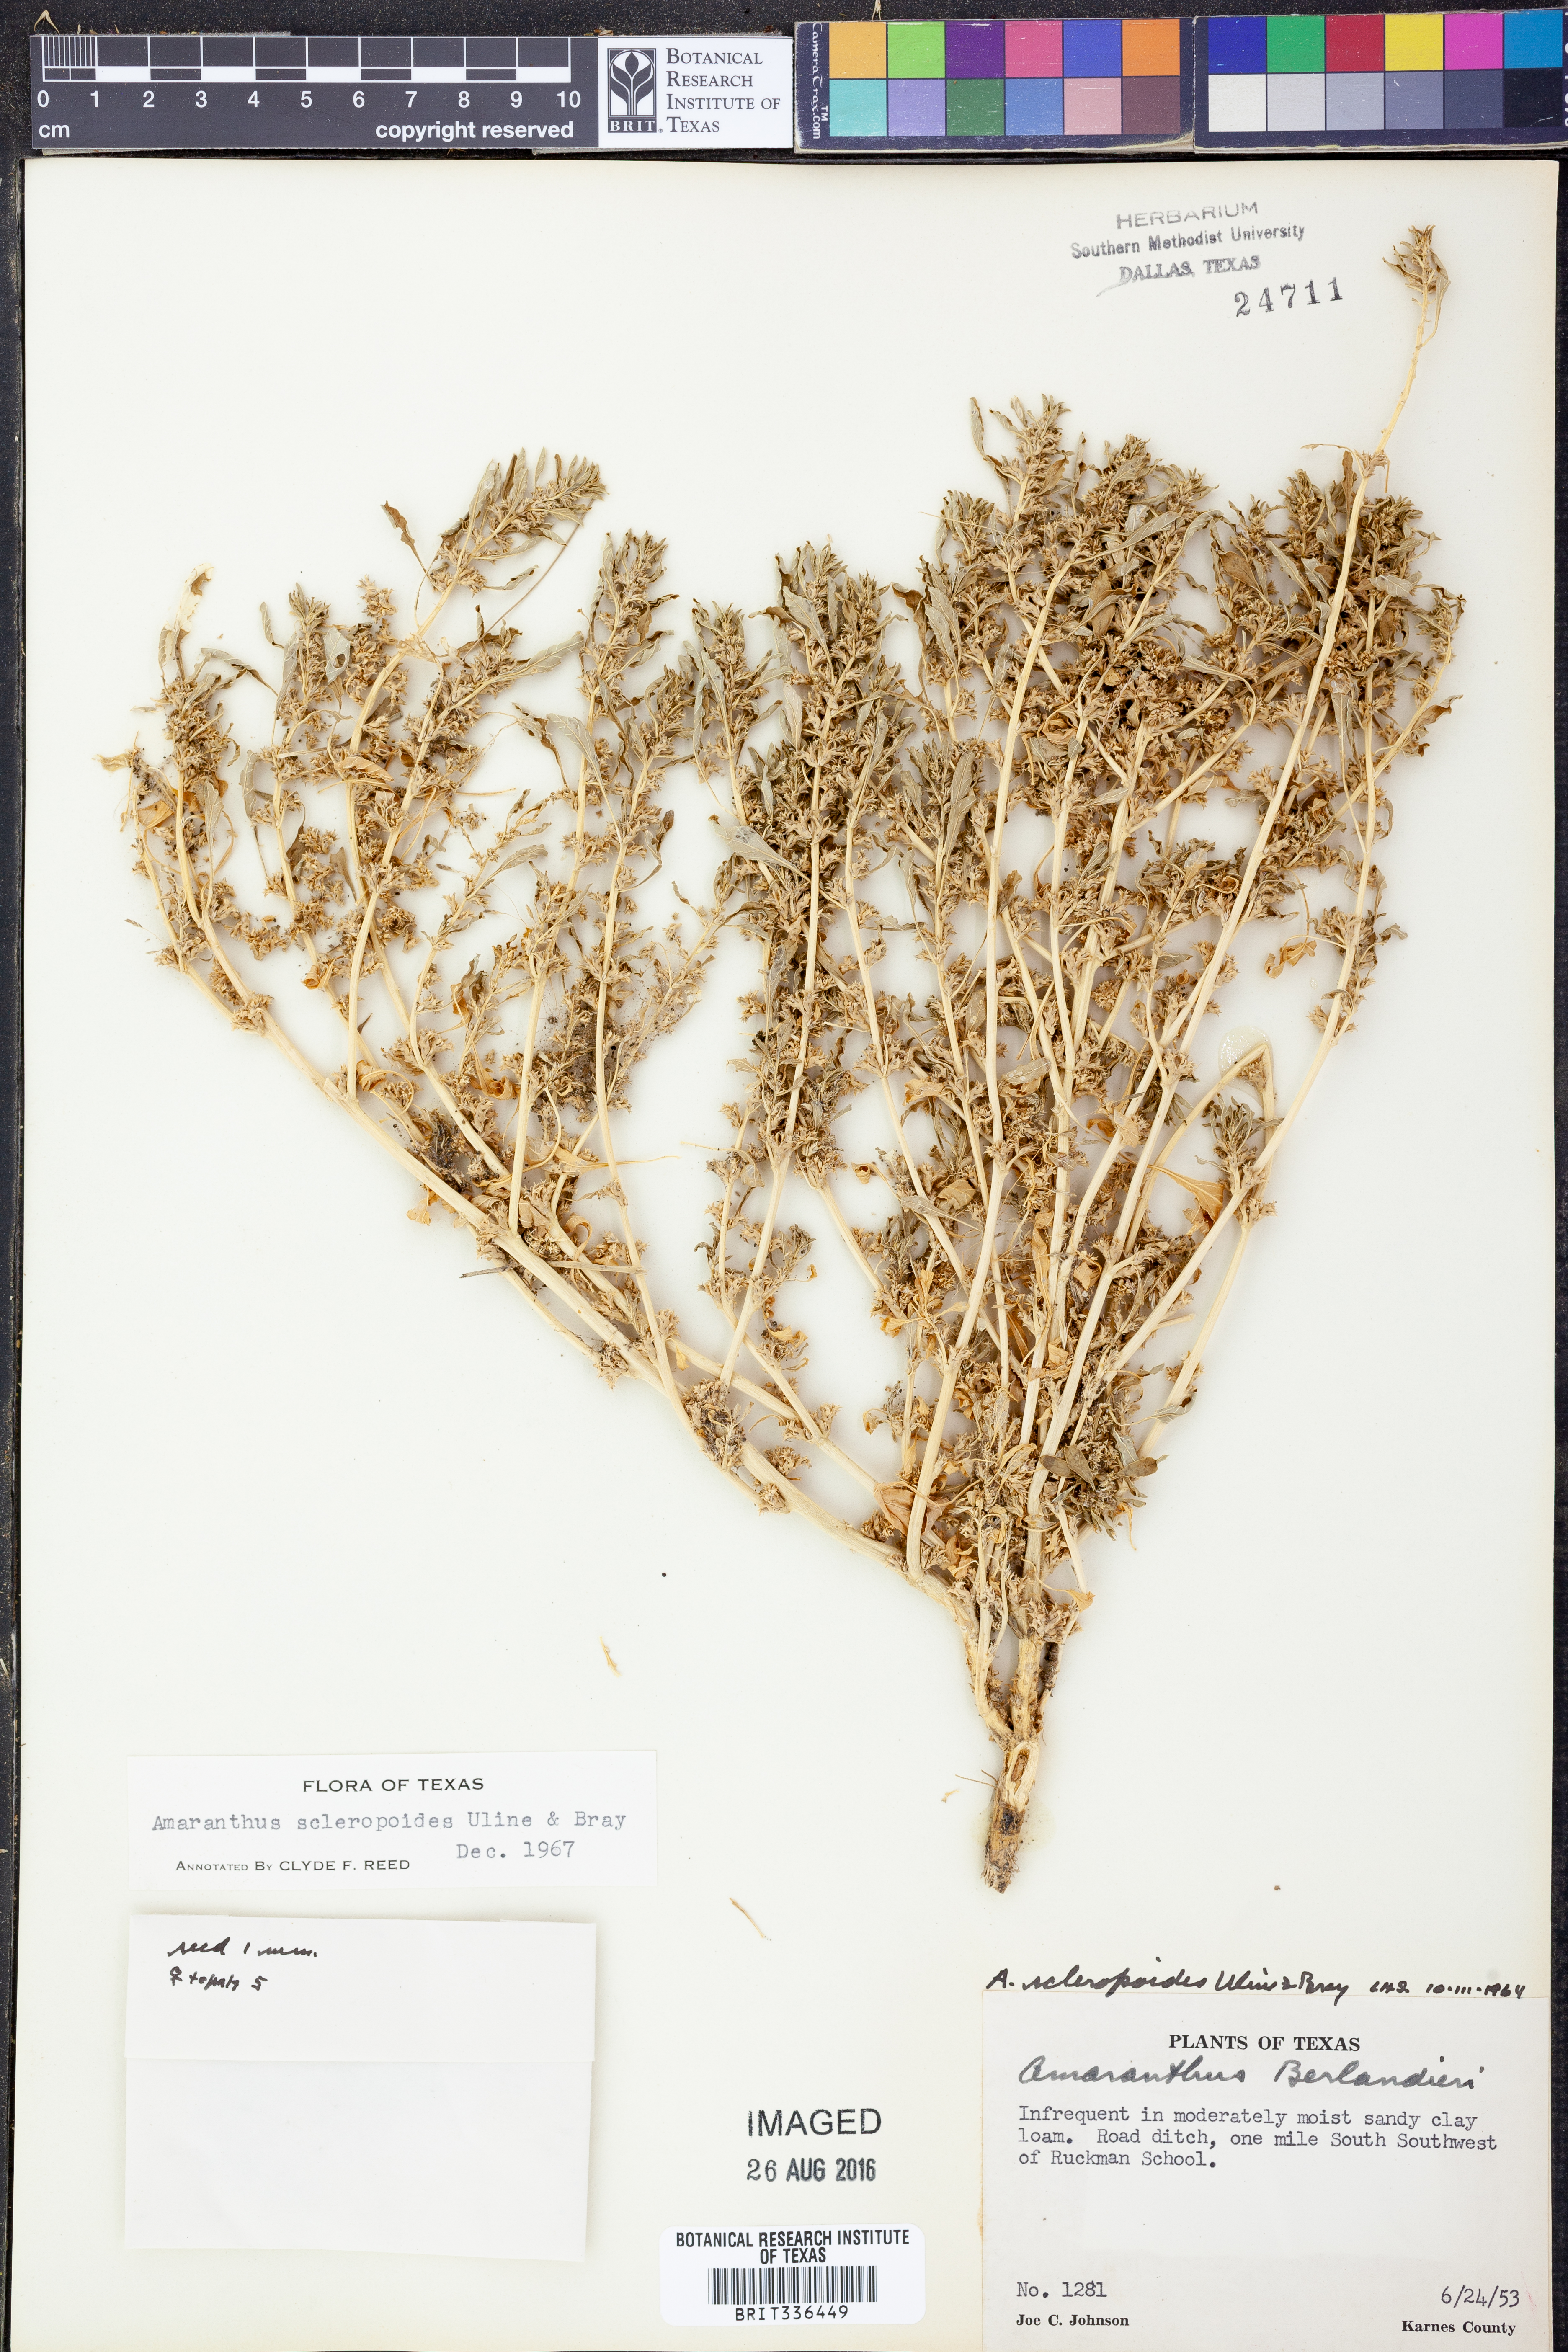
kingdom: Plantae
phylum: Tracheophyta
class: Magnoliopsida
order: Caryophyllales
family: Amaranthaceae
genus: Amaranthus
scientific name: Amaranthus scleropoides
